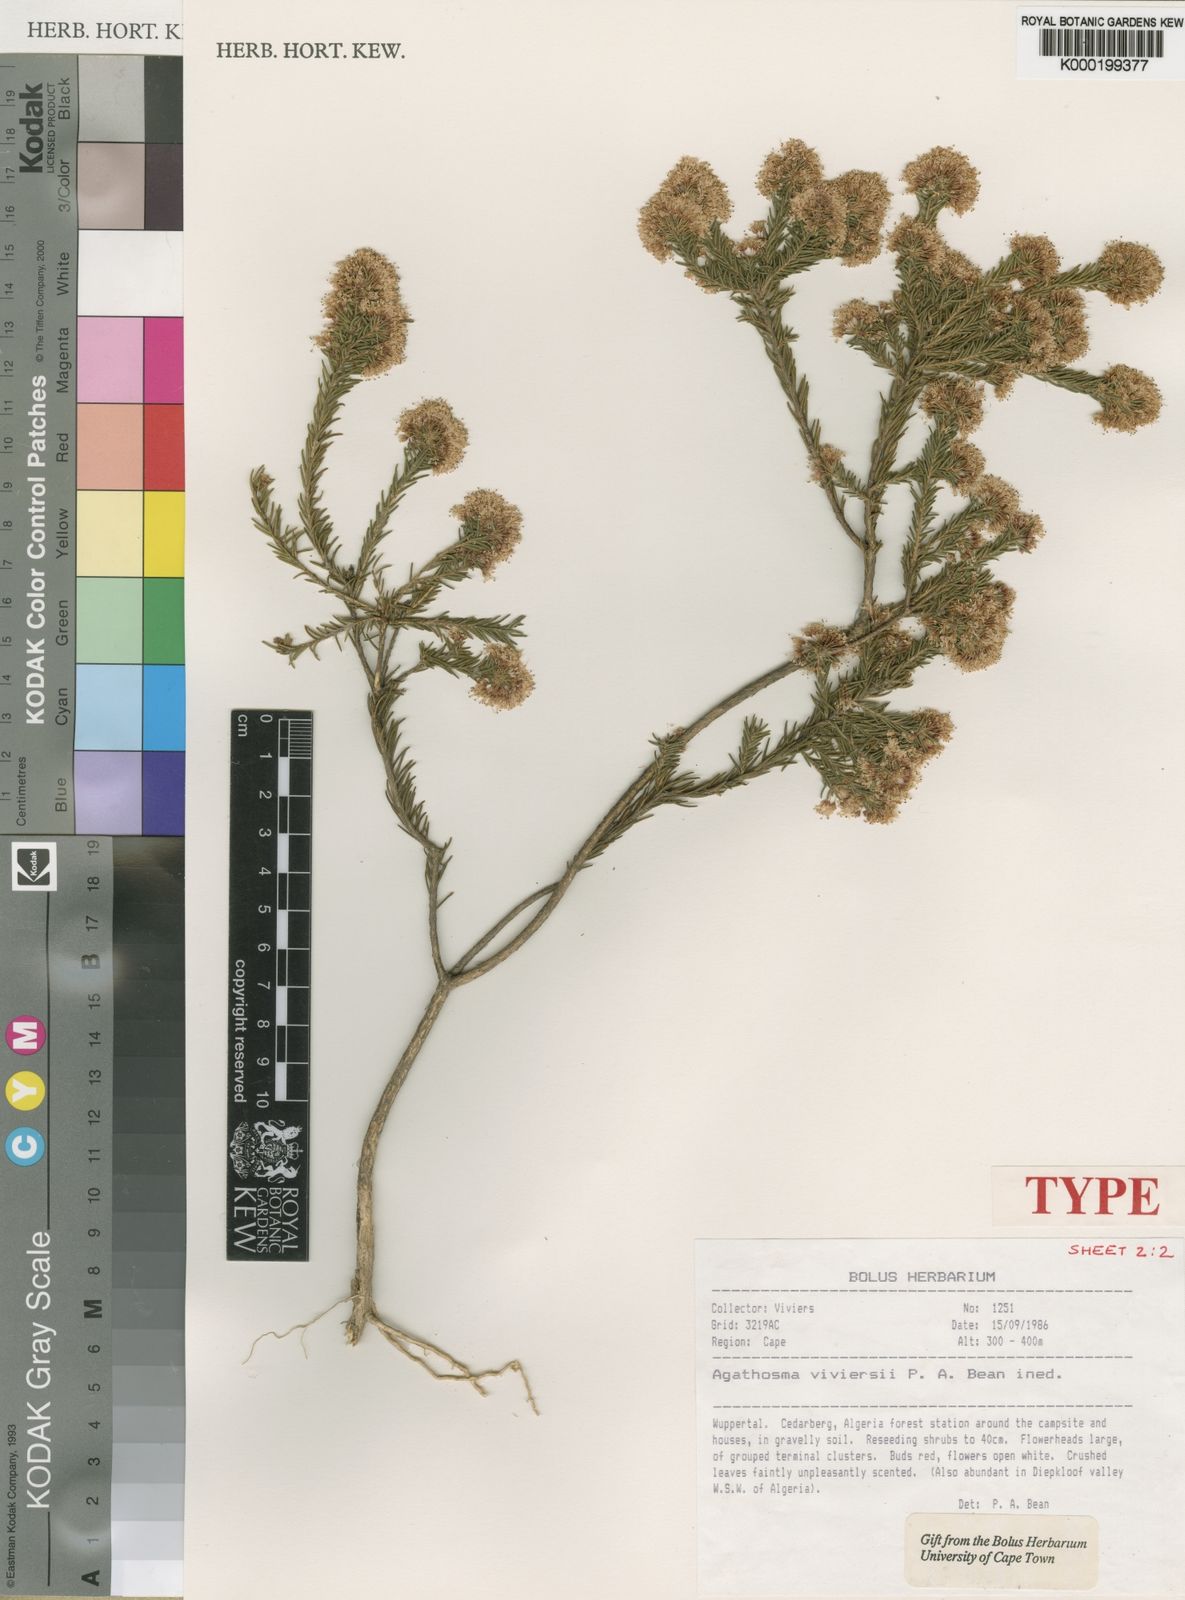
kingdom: Plantae
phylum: Tracheophyta
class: Magnoliopsida
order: Sapindales
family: Rutaceae
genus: Agathosma
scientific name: Agathosma
